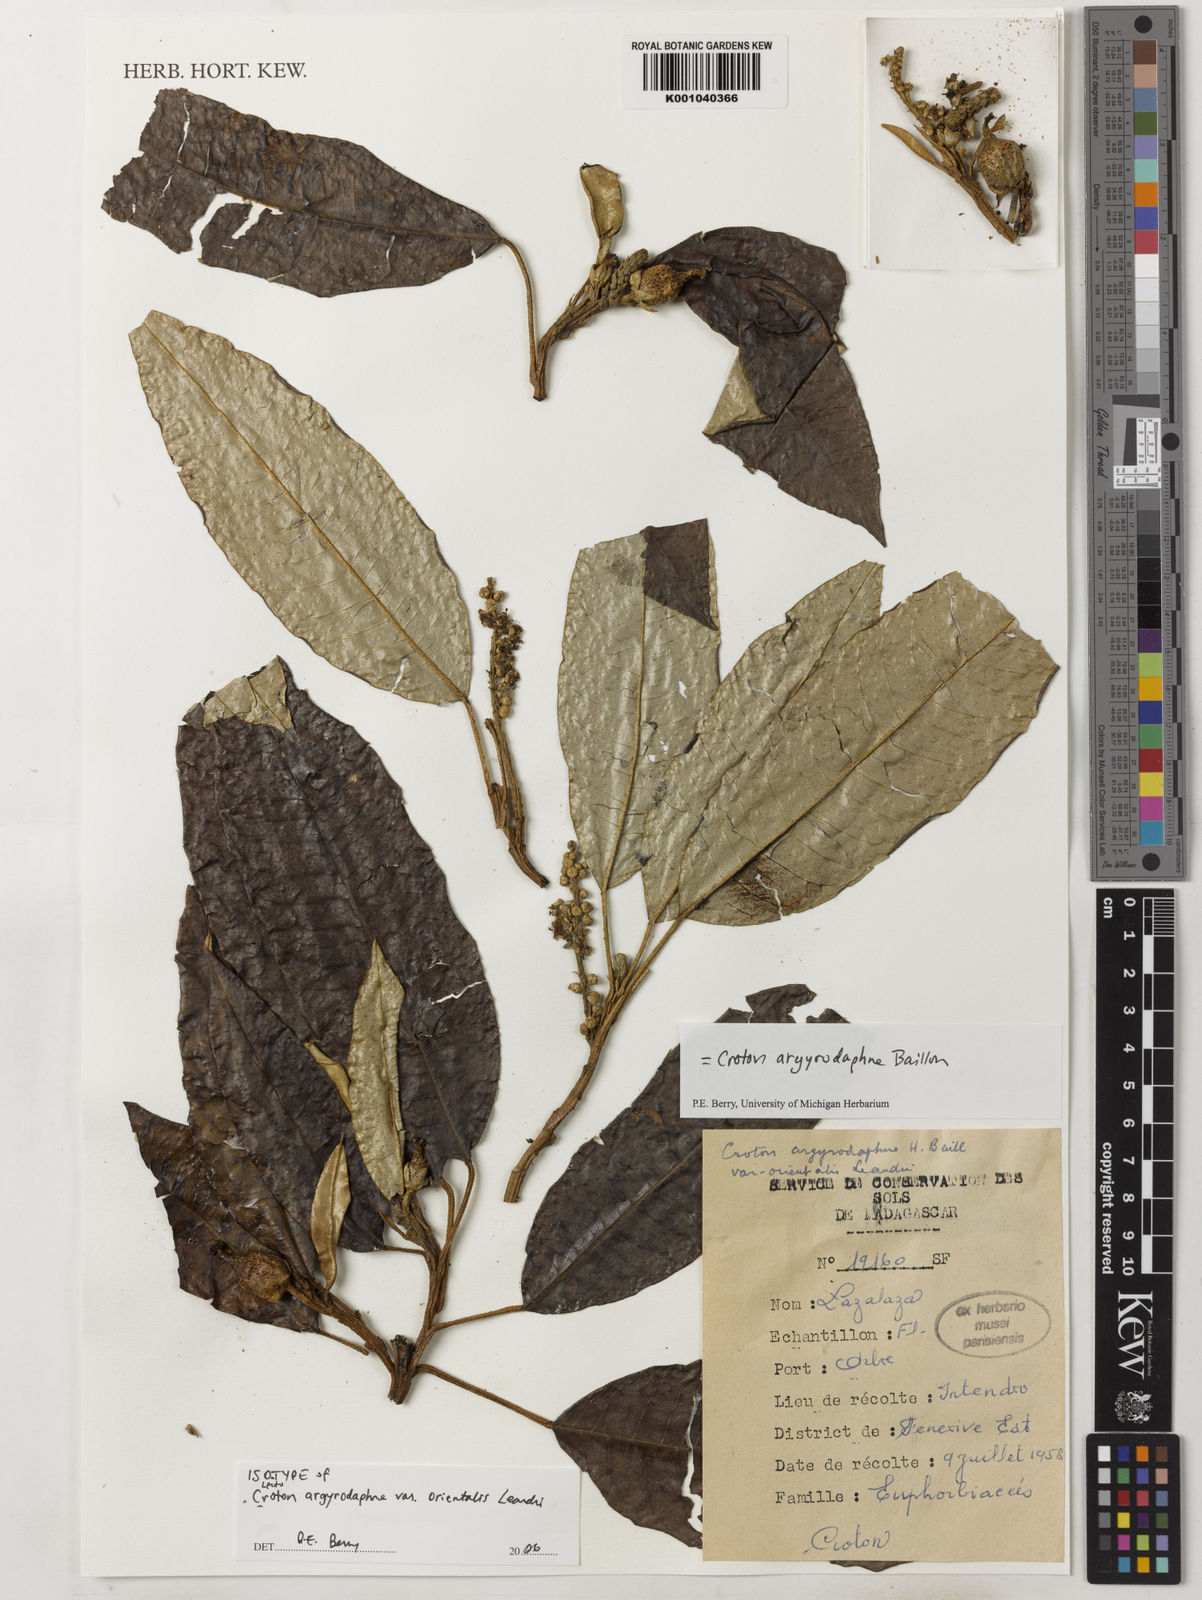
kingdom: Plantae
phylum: Tracheophyta
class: Magnoliopsida
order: Malpighiales
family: Euphorbiaceae
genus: Croton
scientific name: Croton argyrodaphne
